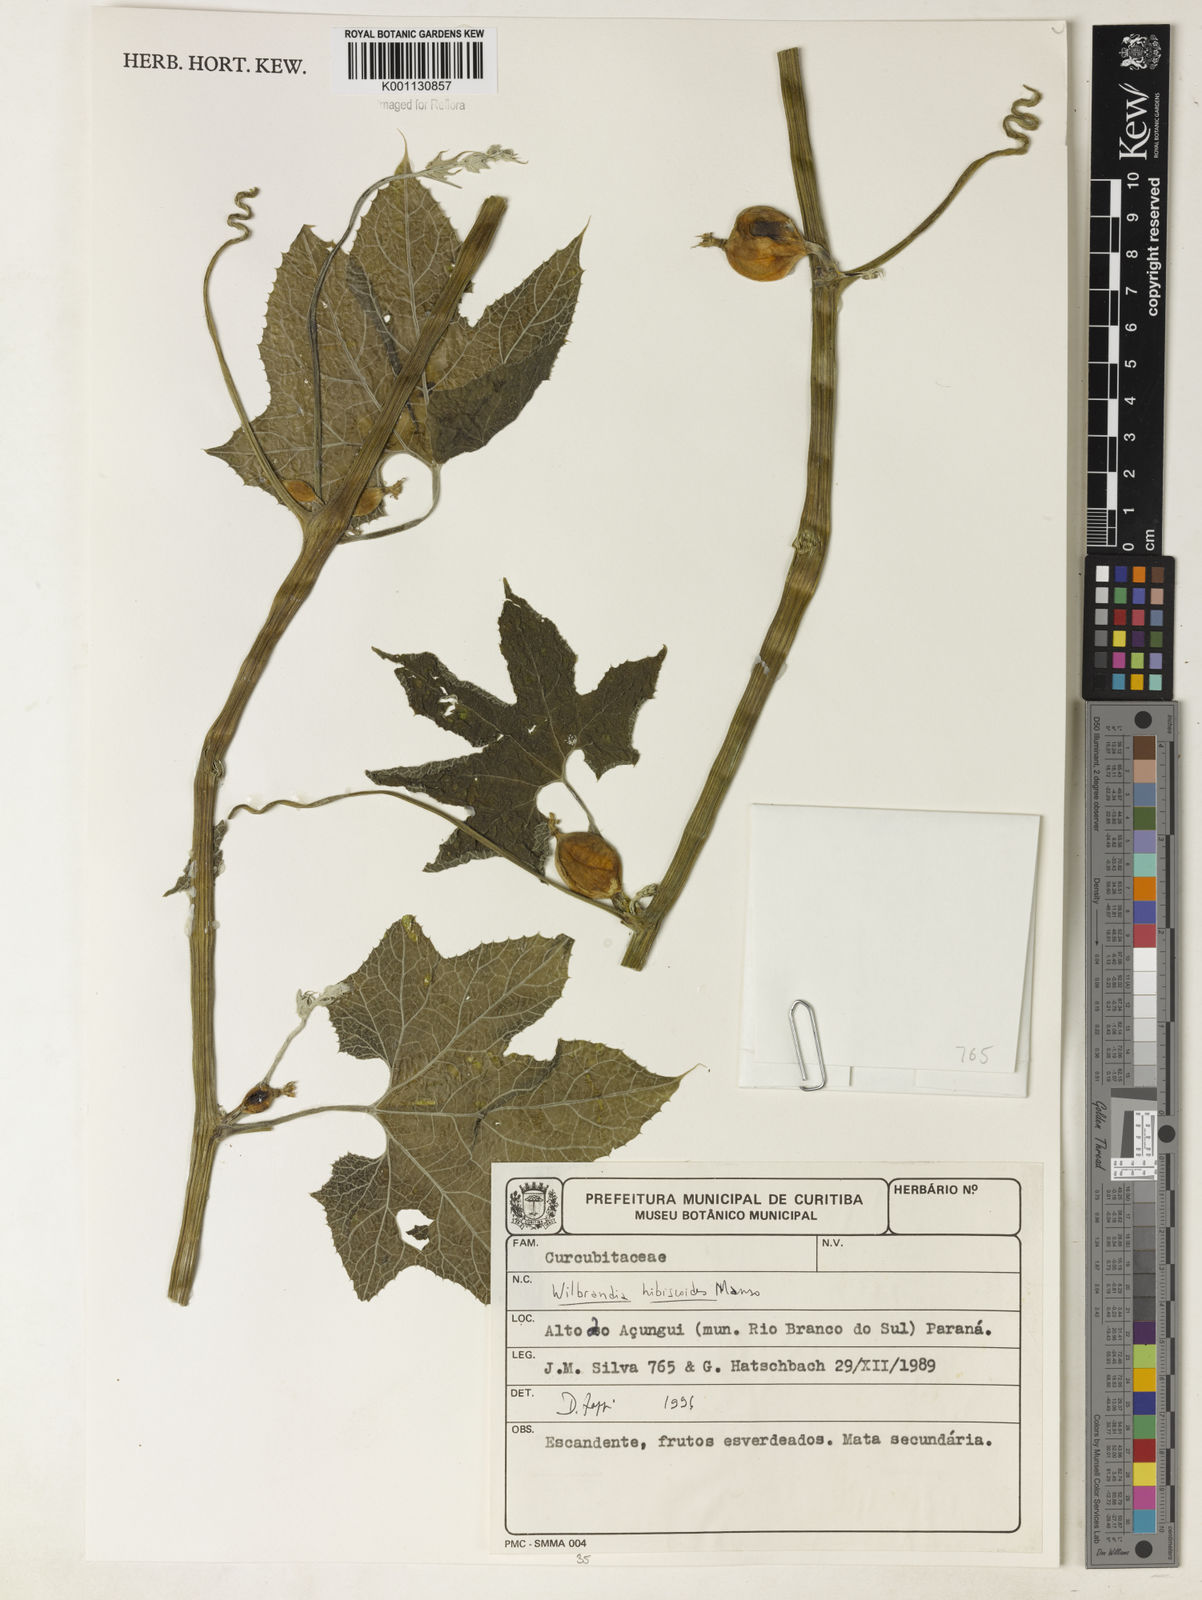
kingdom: Plantae
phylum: Tracheophyta
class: Magnoliopsida
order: Cucurbitales
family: Cucurbitaceae
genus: Wilbrandia
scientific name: Wilbrandia hibiscoides
